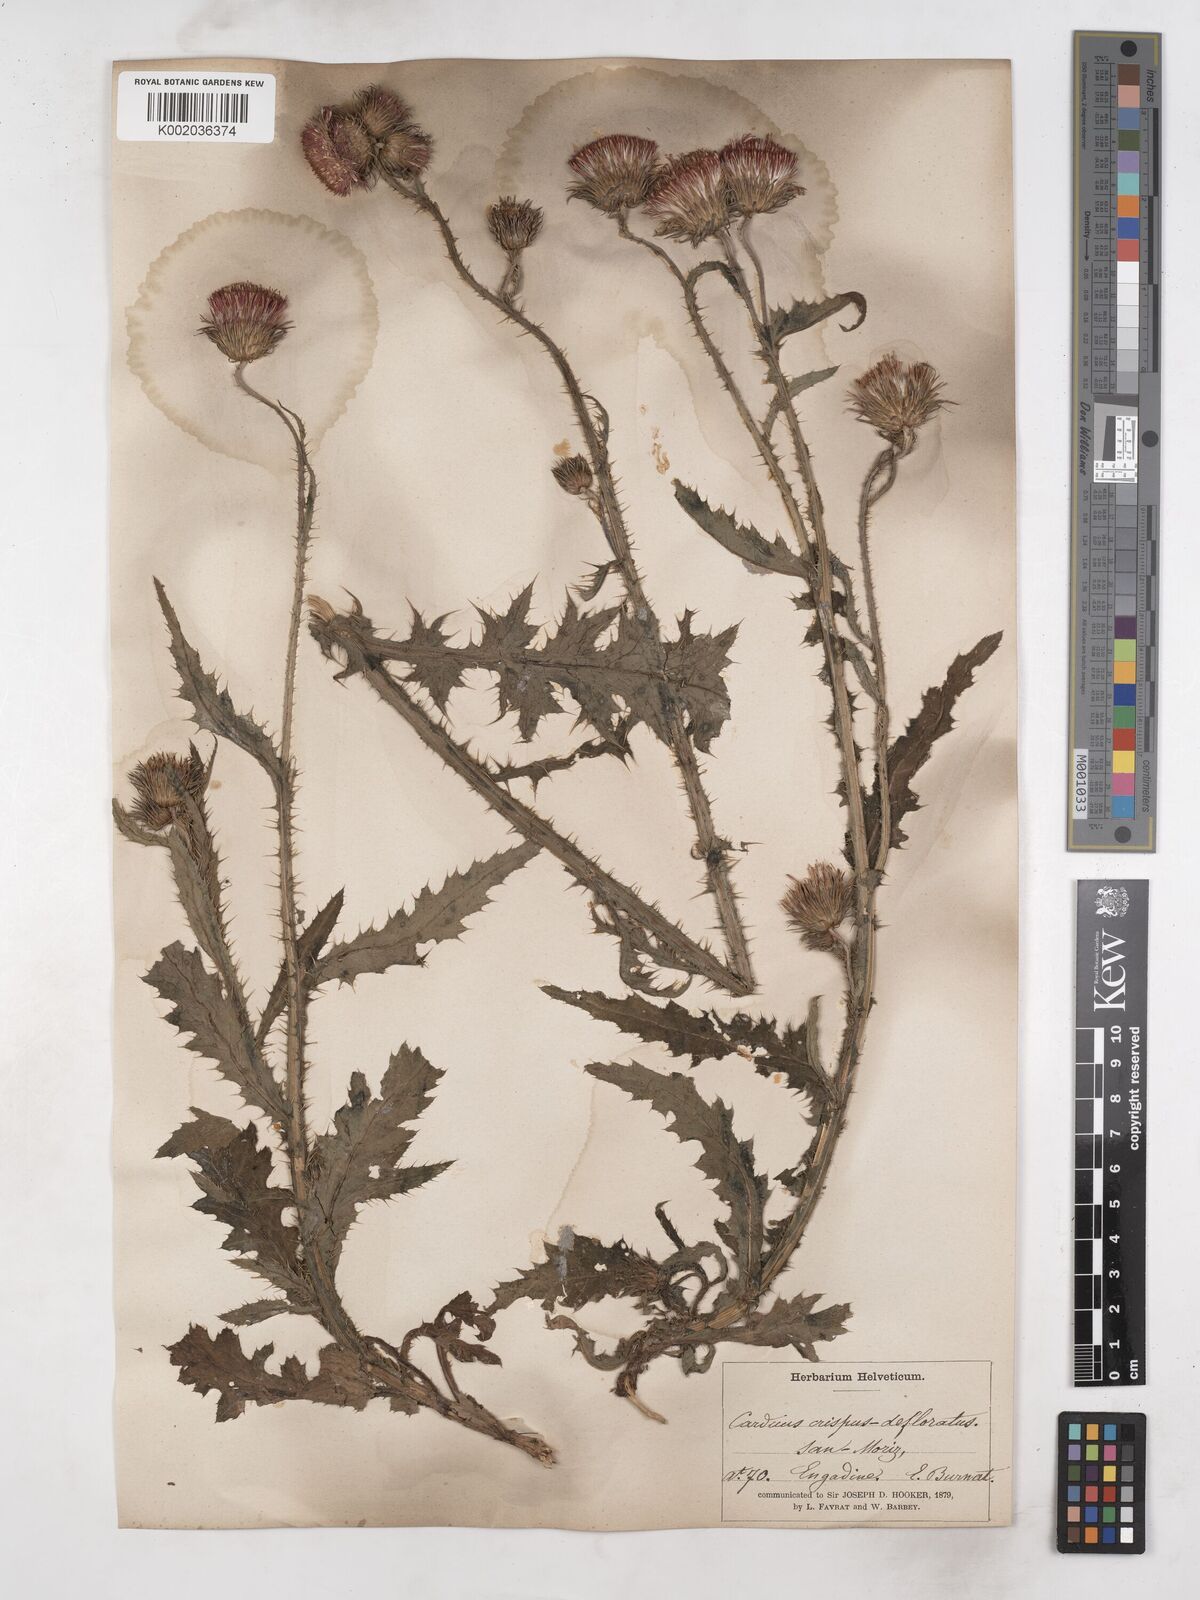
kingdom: Plantae
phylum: Tracheophyta
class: Magnoliopsida
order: Asterales
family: Asteraceae
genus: Carduus
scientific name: Carduus crispus
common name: Welted thistle
